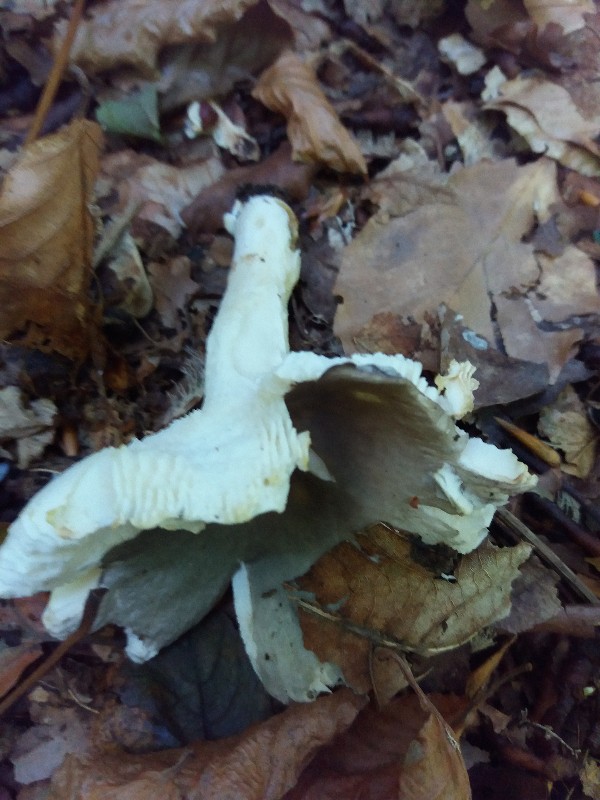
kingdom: Fungi
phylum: Basidiomycota
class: Agaricomycetes
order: Russulales
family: Russulaceae
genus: Russula
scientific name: Russula parazurea
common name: blågrå skørhat
